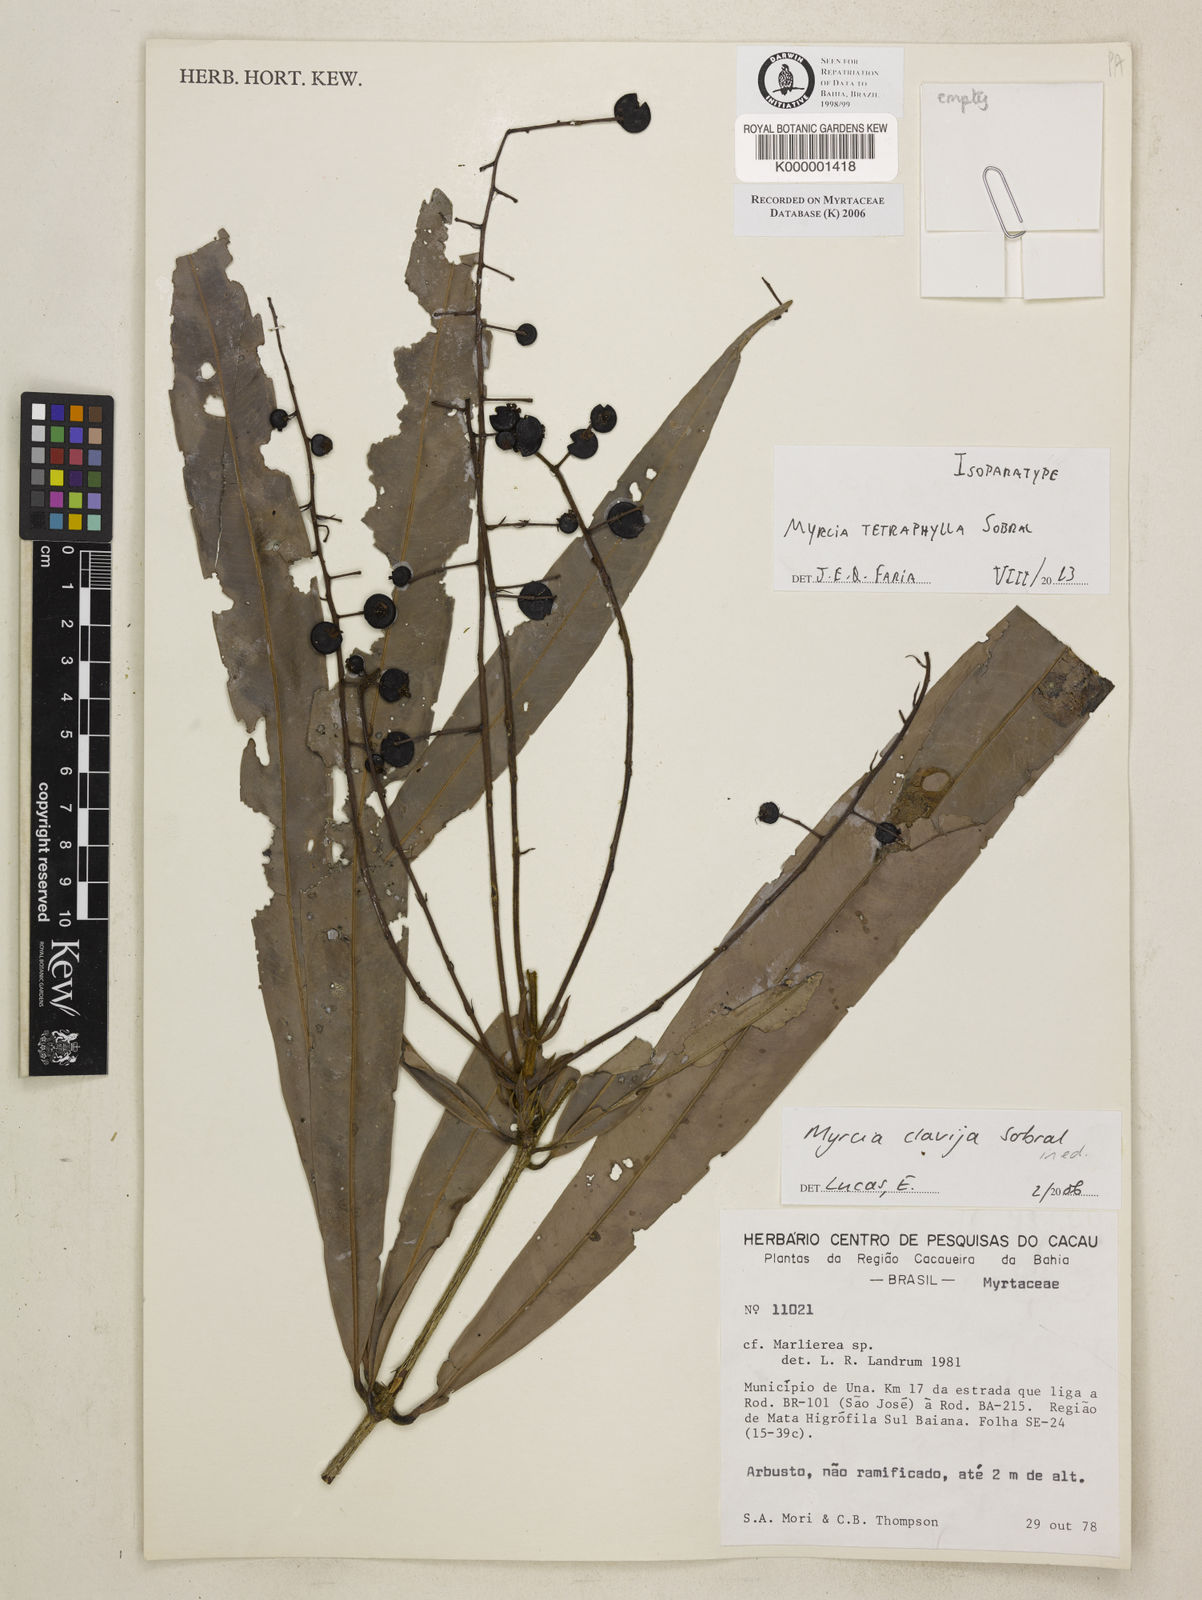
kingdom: Plantae
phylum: Tracheophyta
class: Magnoliopsida
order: Myrtales
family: Myrtaceae
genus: Myrcia
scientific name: Myrcia tetraphylla
